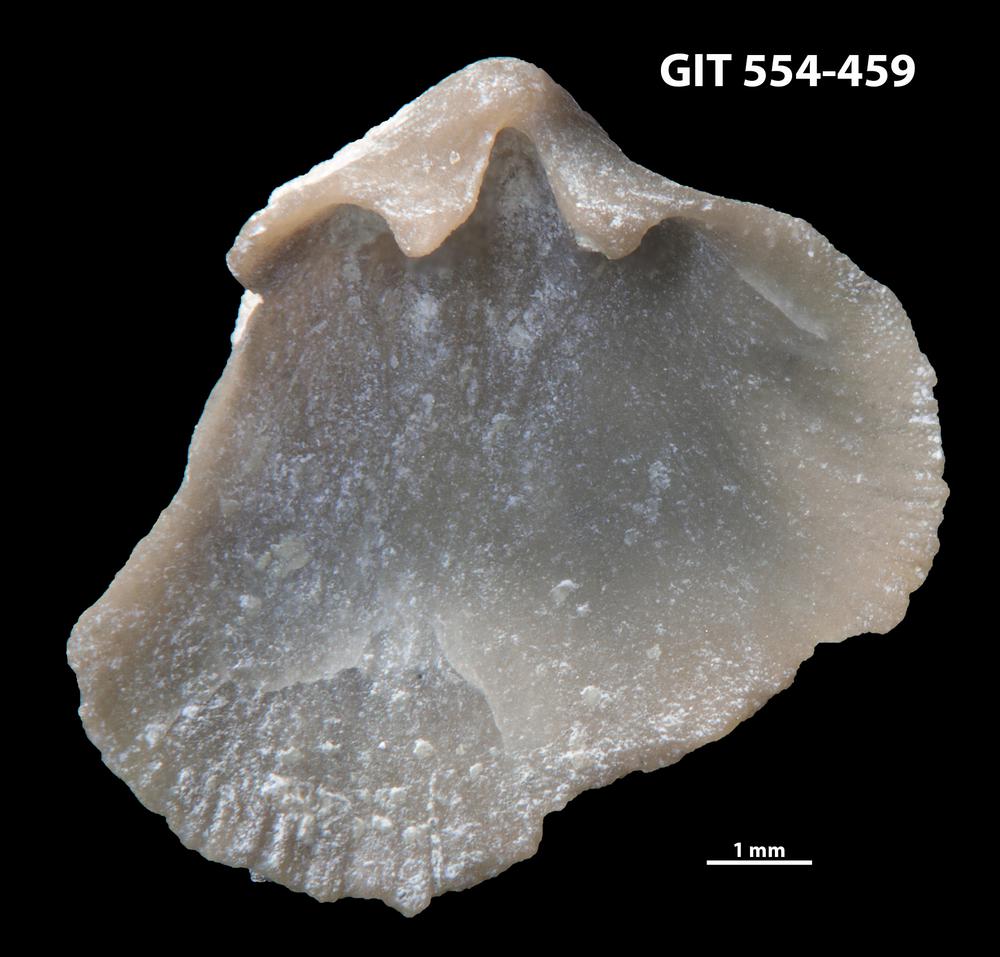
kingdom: Animalia
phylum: Brachiopoda
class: Rhynchonellata
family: Dalmanellidae
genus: Onniella
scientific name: Onniella trigona
